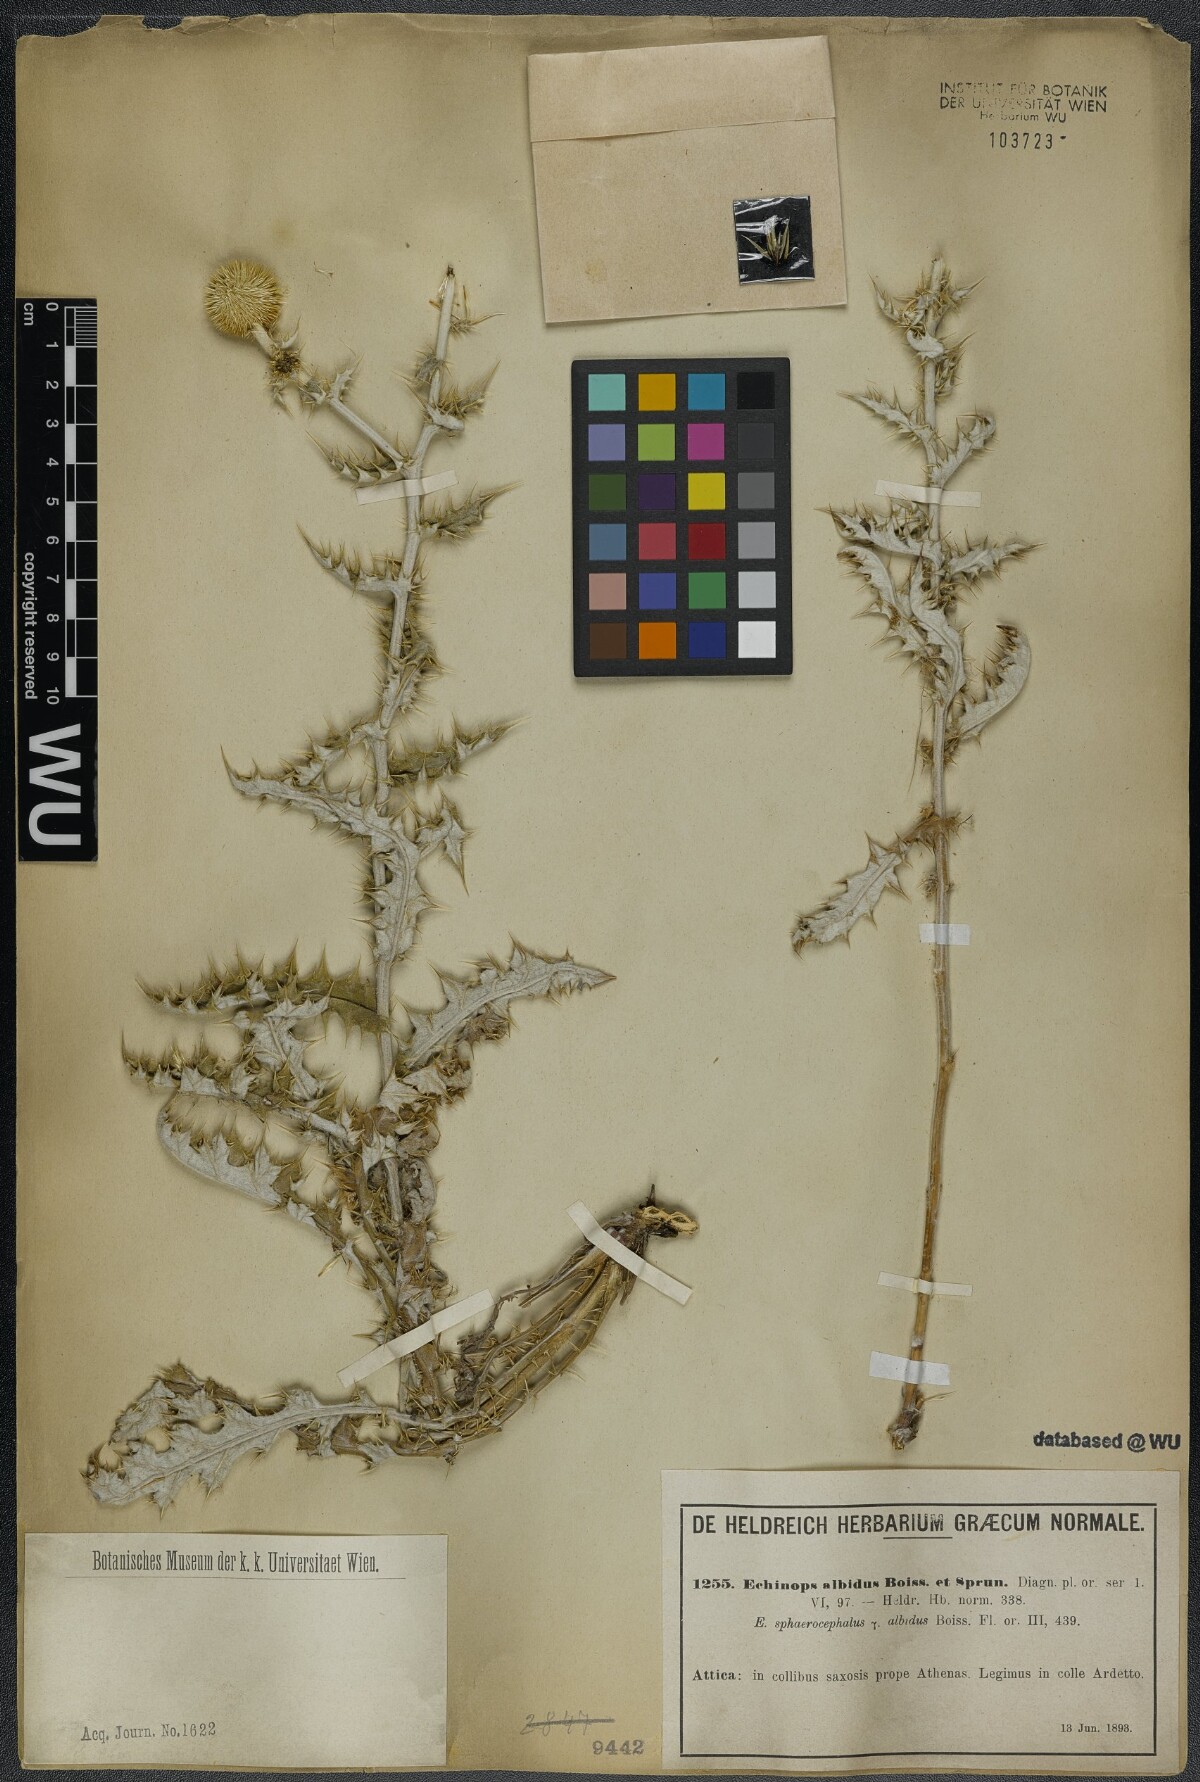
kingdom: Plantae
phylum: Tracheophyta
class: Magnoliopsida
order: Asterales
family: Asteraceae
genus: Echinops
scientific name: Echinops sphaerocephalus
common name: Glandular globe-thistle
